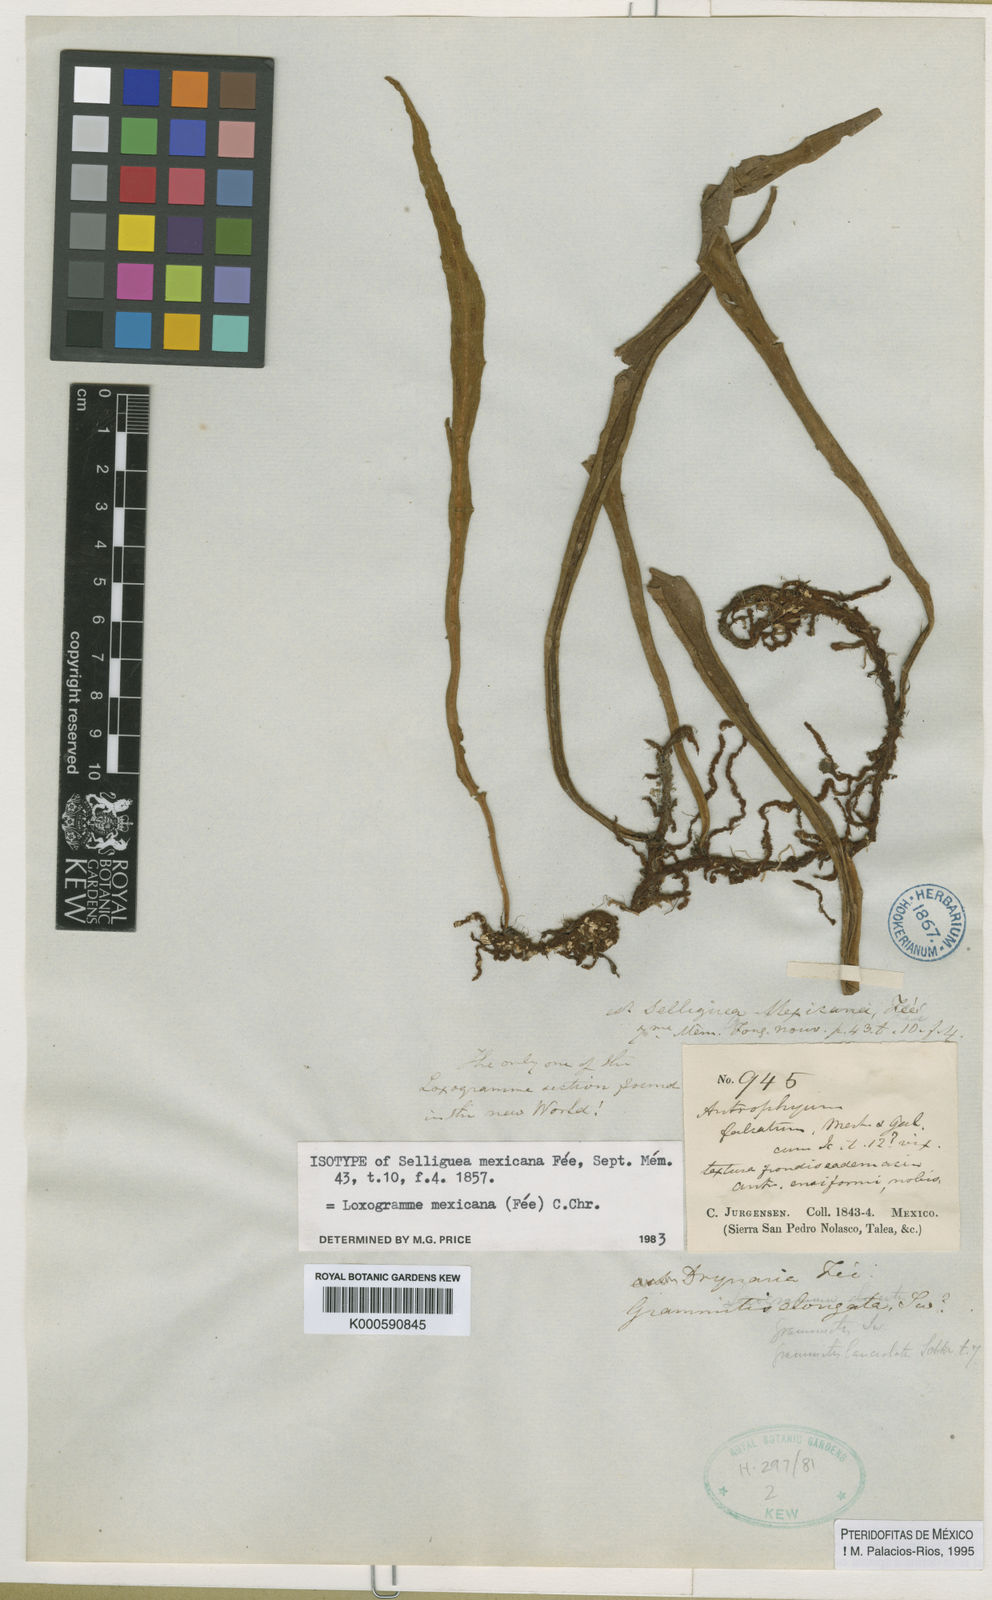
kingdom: Plantae
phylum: Tracheophyta
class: Polypodiopsida
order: Polypodiales
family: Polypodiaceae
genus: Loxogramme
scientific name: Loxogramme
